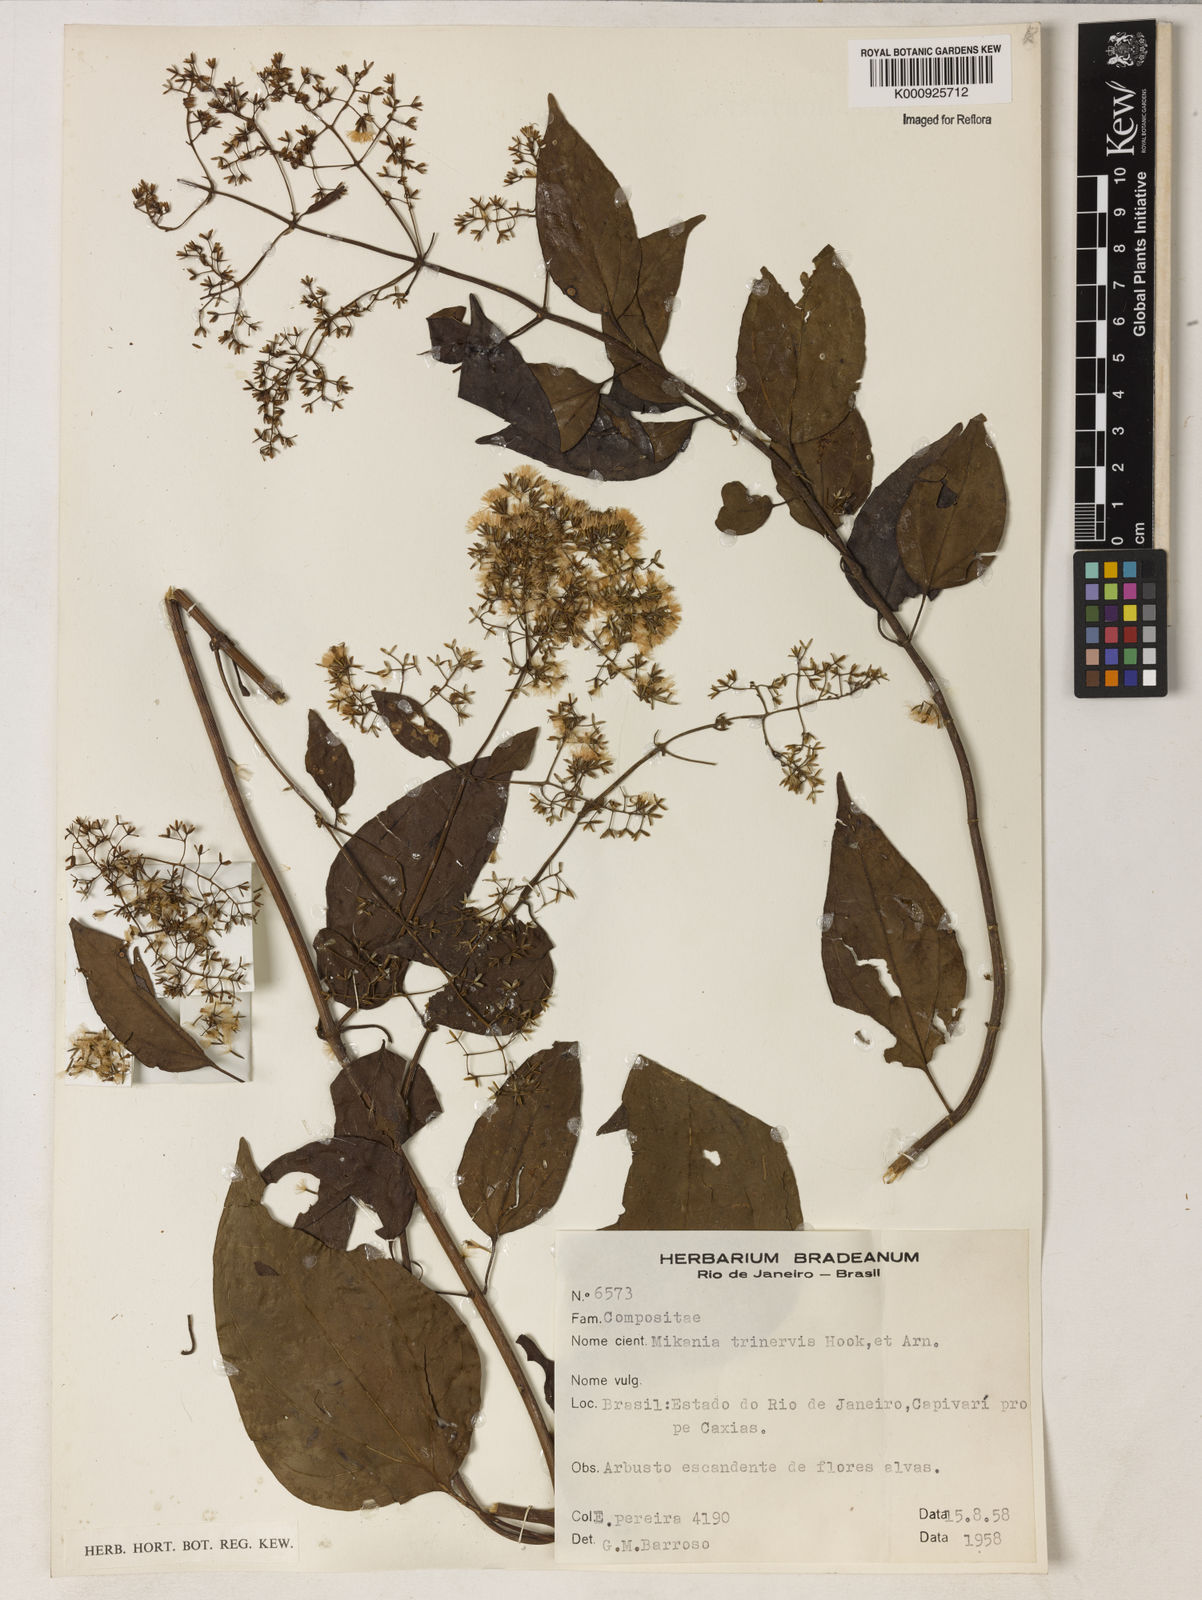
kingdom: Plantae
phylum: Tracheophyta
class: Magnoliopsida
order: Asterales
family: Asteraceae
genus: Mikania
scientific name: Mikania trinervis
